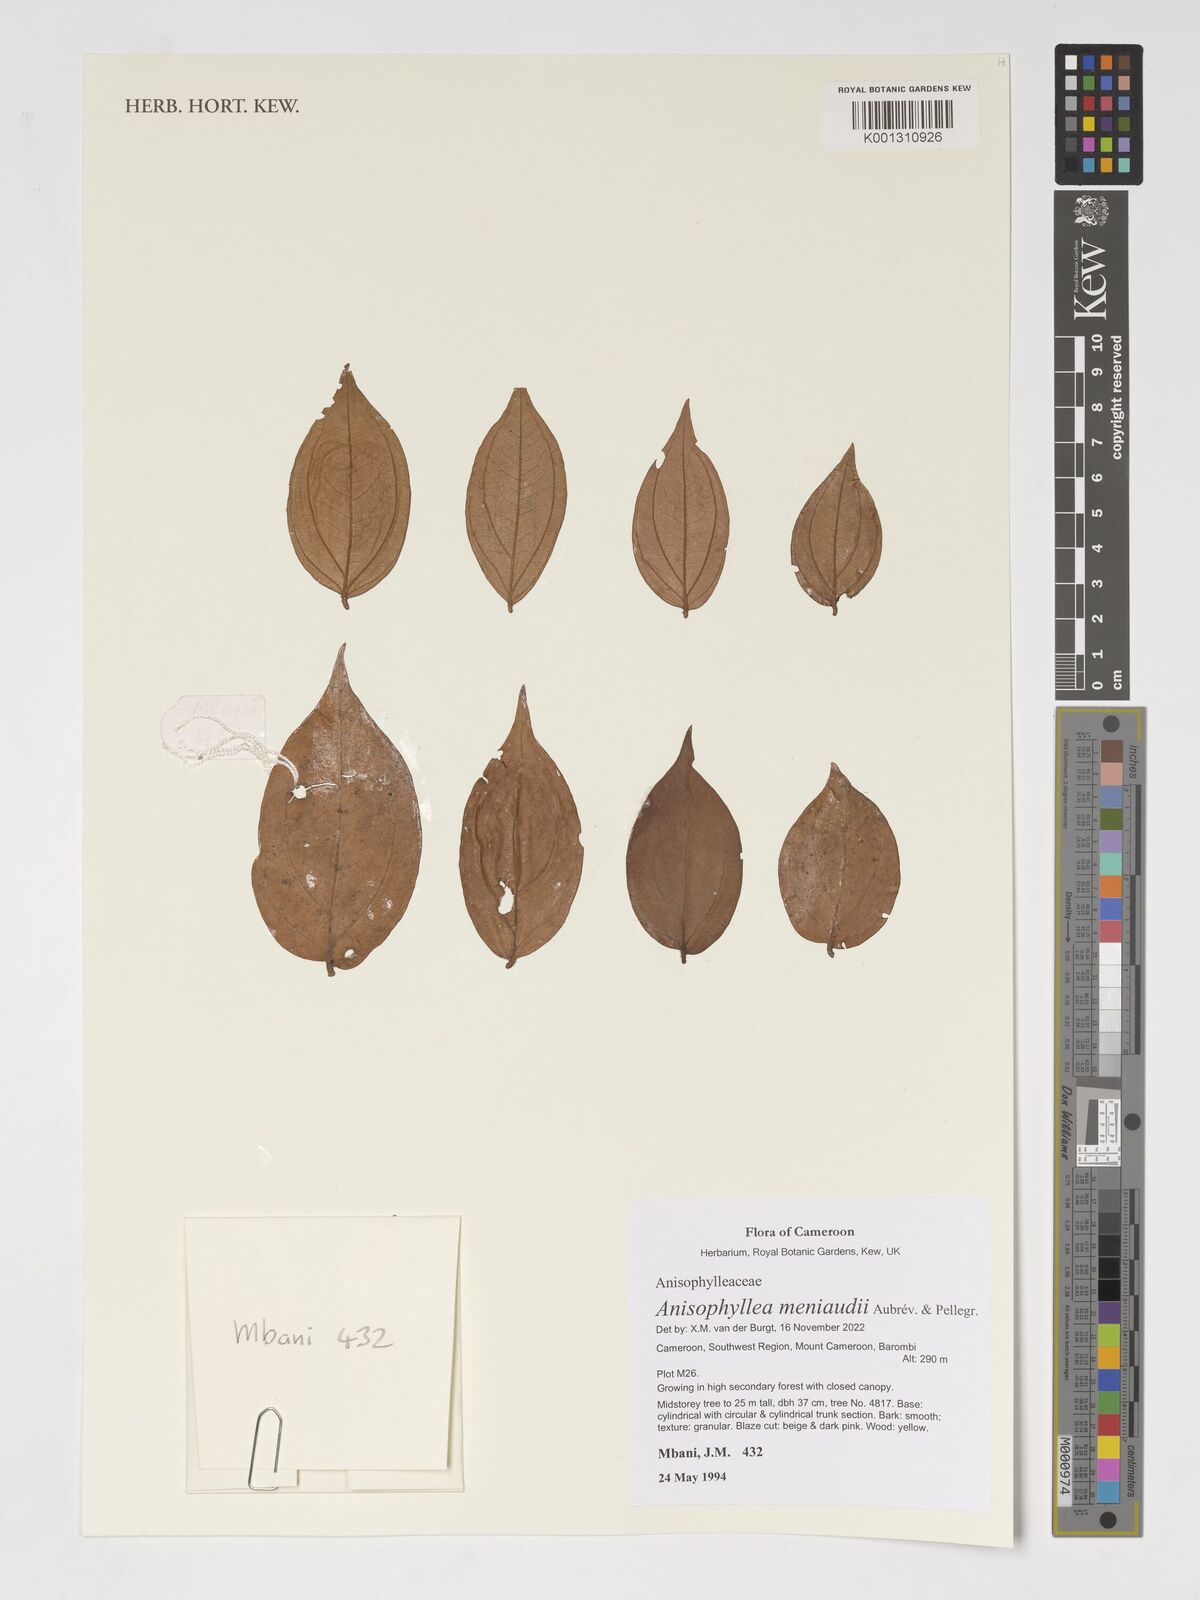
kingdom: Plantae
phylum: Tracheophyta
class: Magnoliopsida
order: Cucurbitales
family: Anisophylleaceae
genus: Anisophyllea
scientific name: Anisophyllea meniaudii
